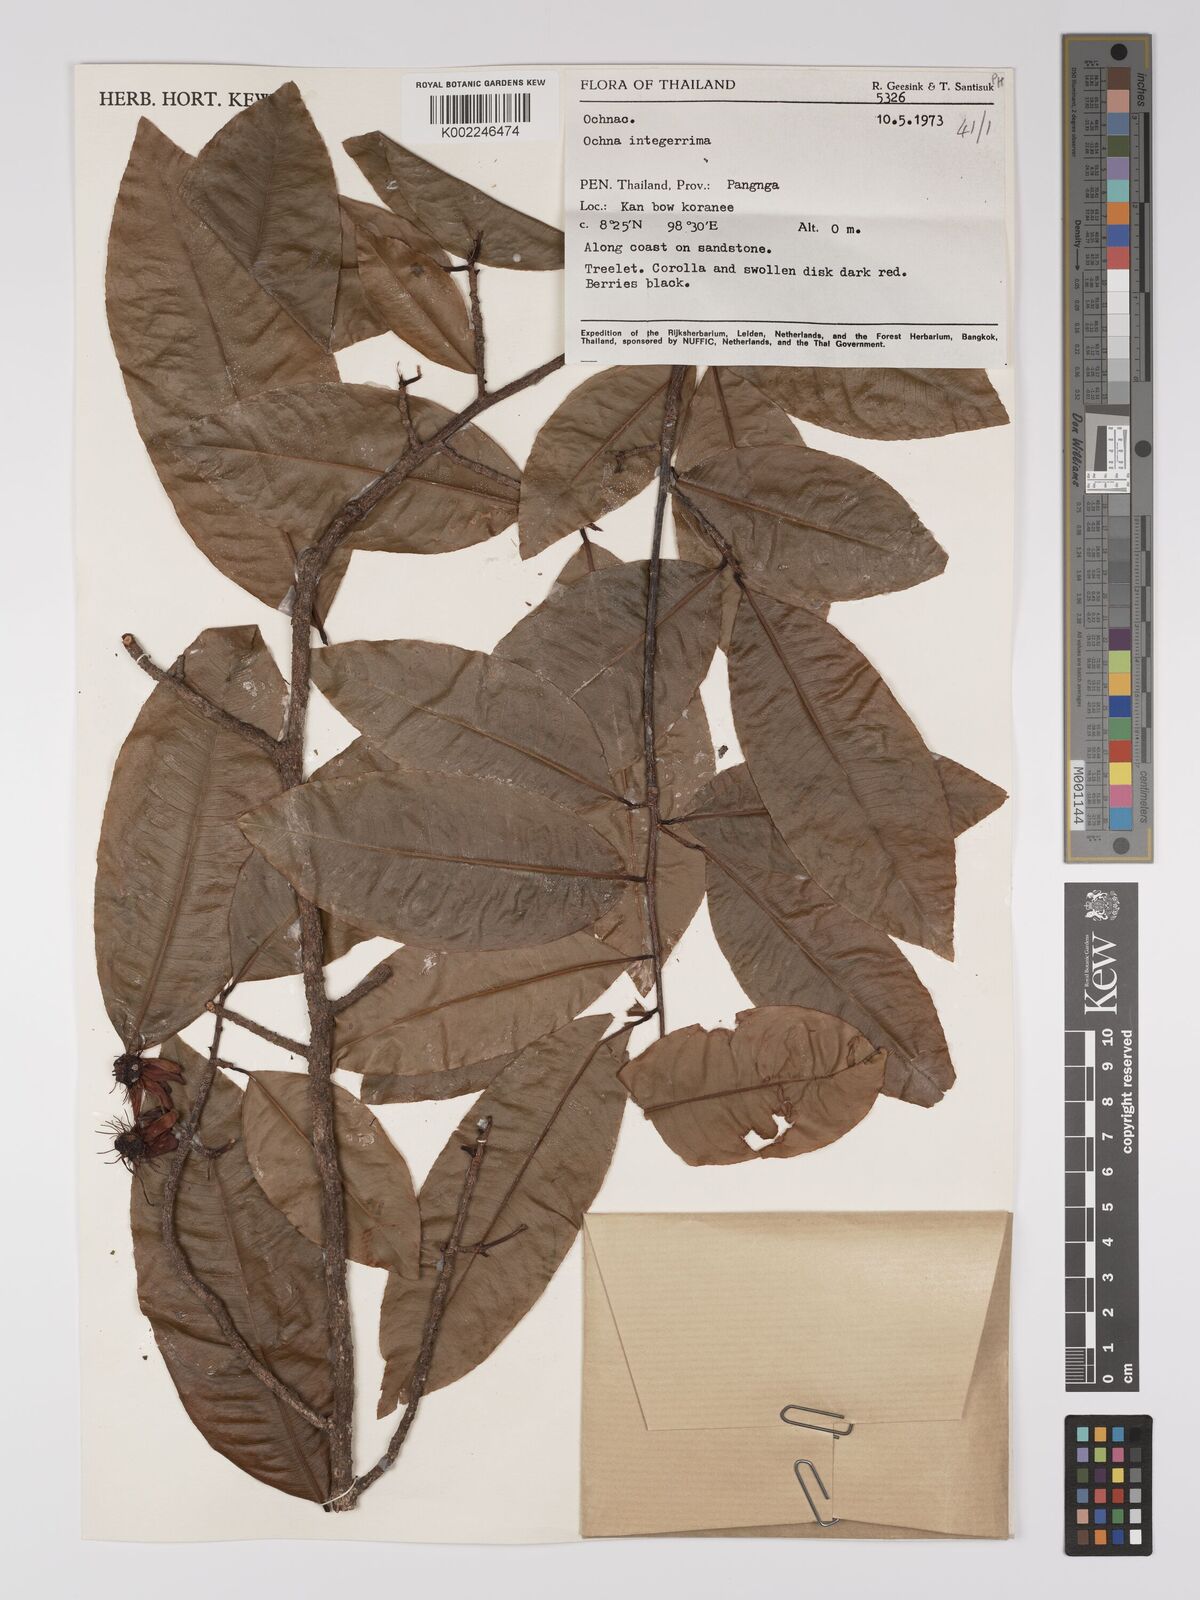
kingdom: Plantae
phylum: Tracheophyta
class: Magnoliopsida
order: Malpighiales
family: Ochnaceae
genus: Ochna
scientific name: Ochna integerrima
